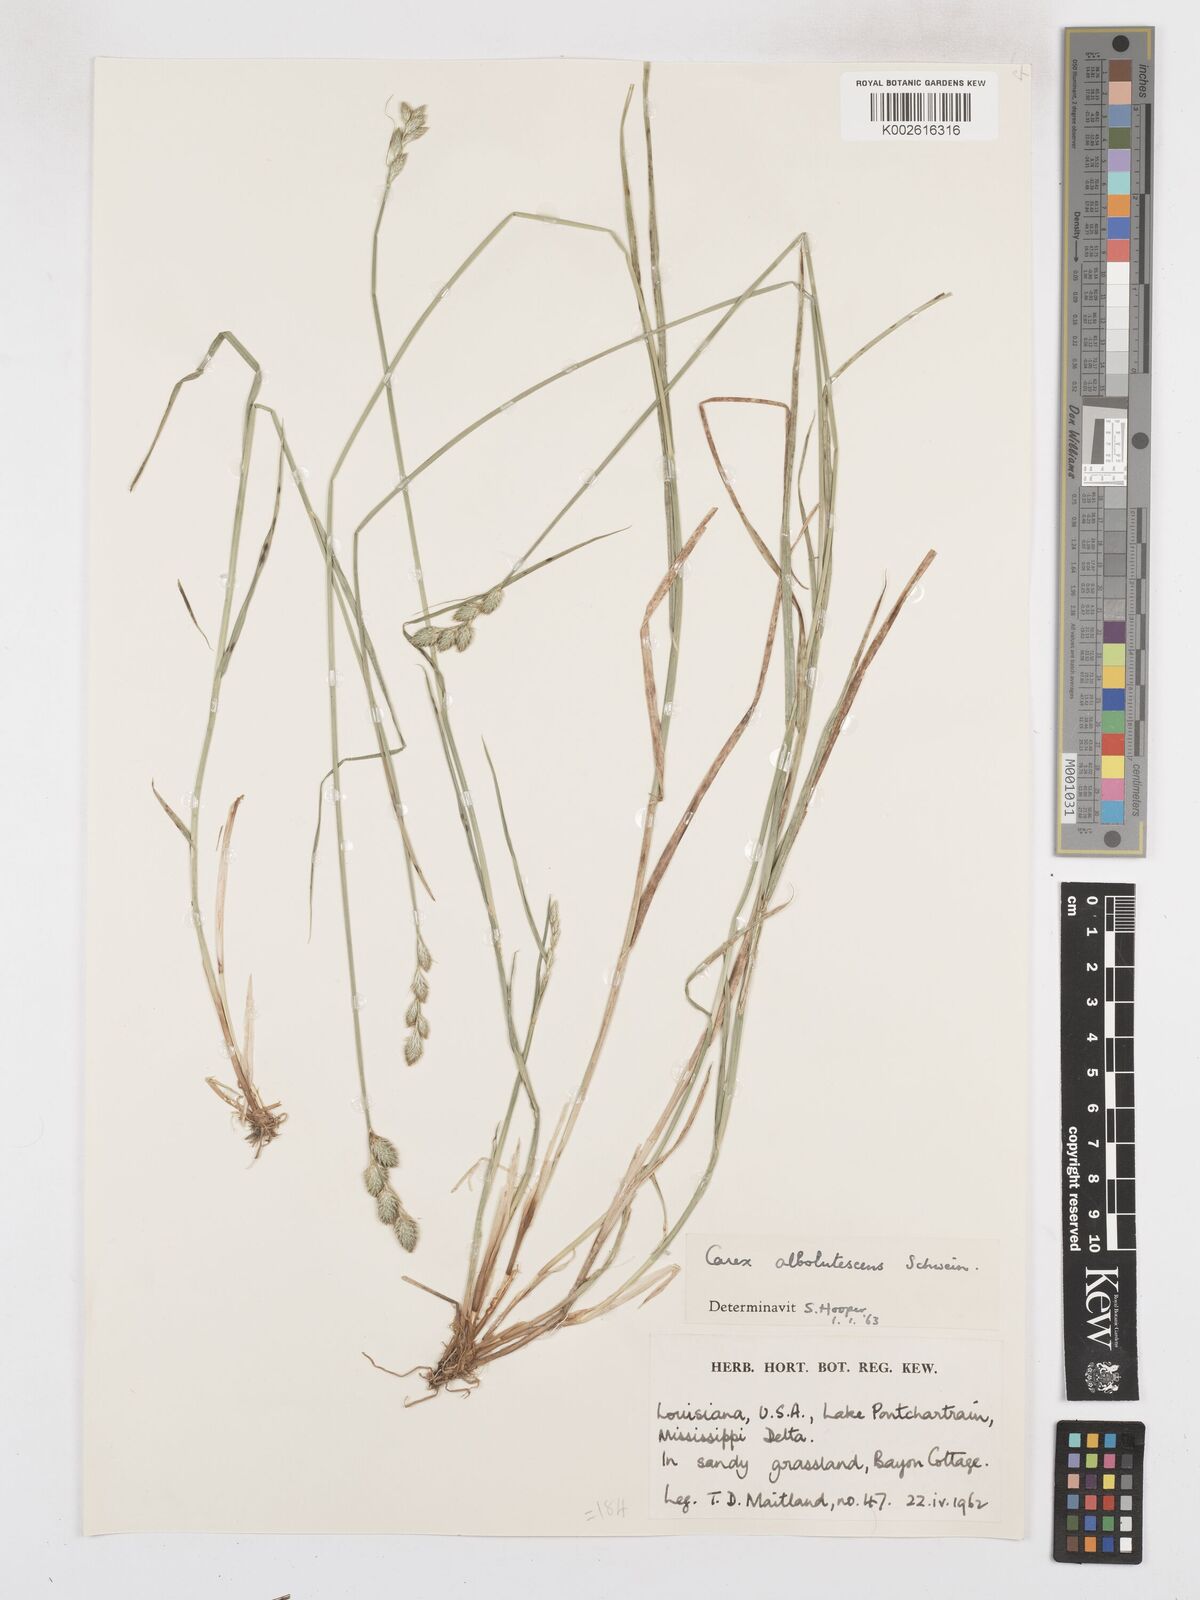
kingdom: Plantae
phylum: Tracheophyta
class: Liliopsida
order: Poales
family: Cyperaceae
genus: Carex
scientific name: Carex albolutescens
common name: Freenish white sedge
